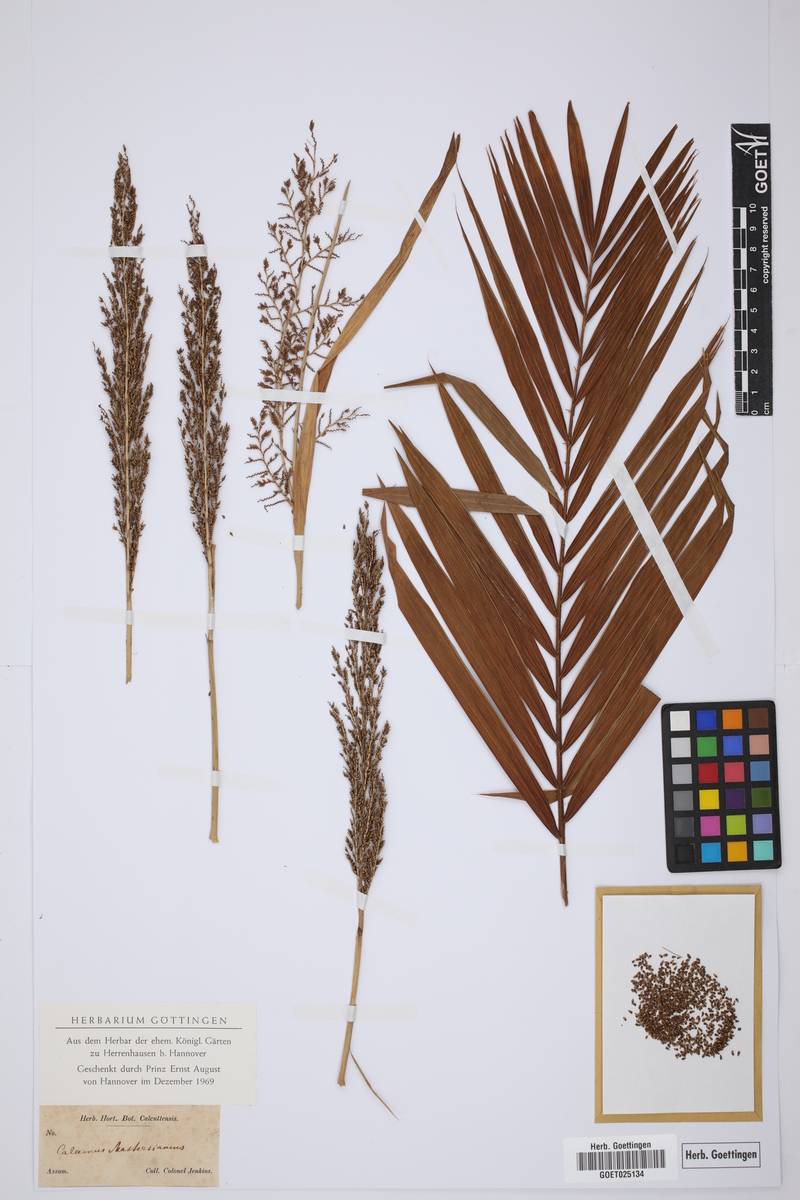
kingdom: Plantae
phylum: Tracheophyta
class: Liliopsida
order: Arecales
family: Arecaceae
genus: Calamus
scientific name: Calamus guruba
